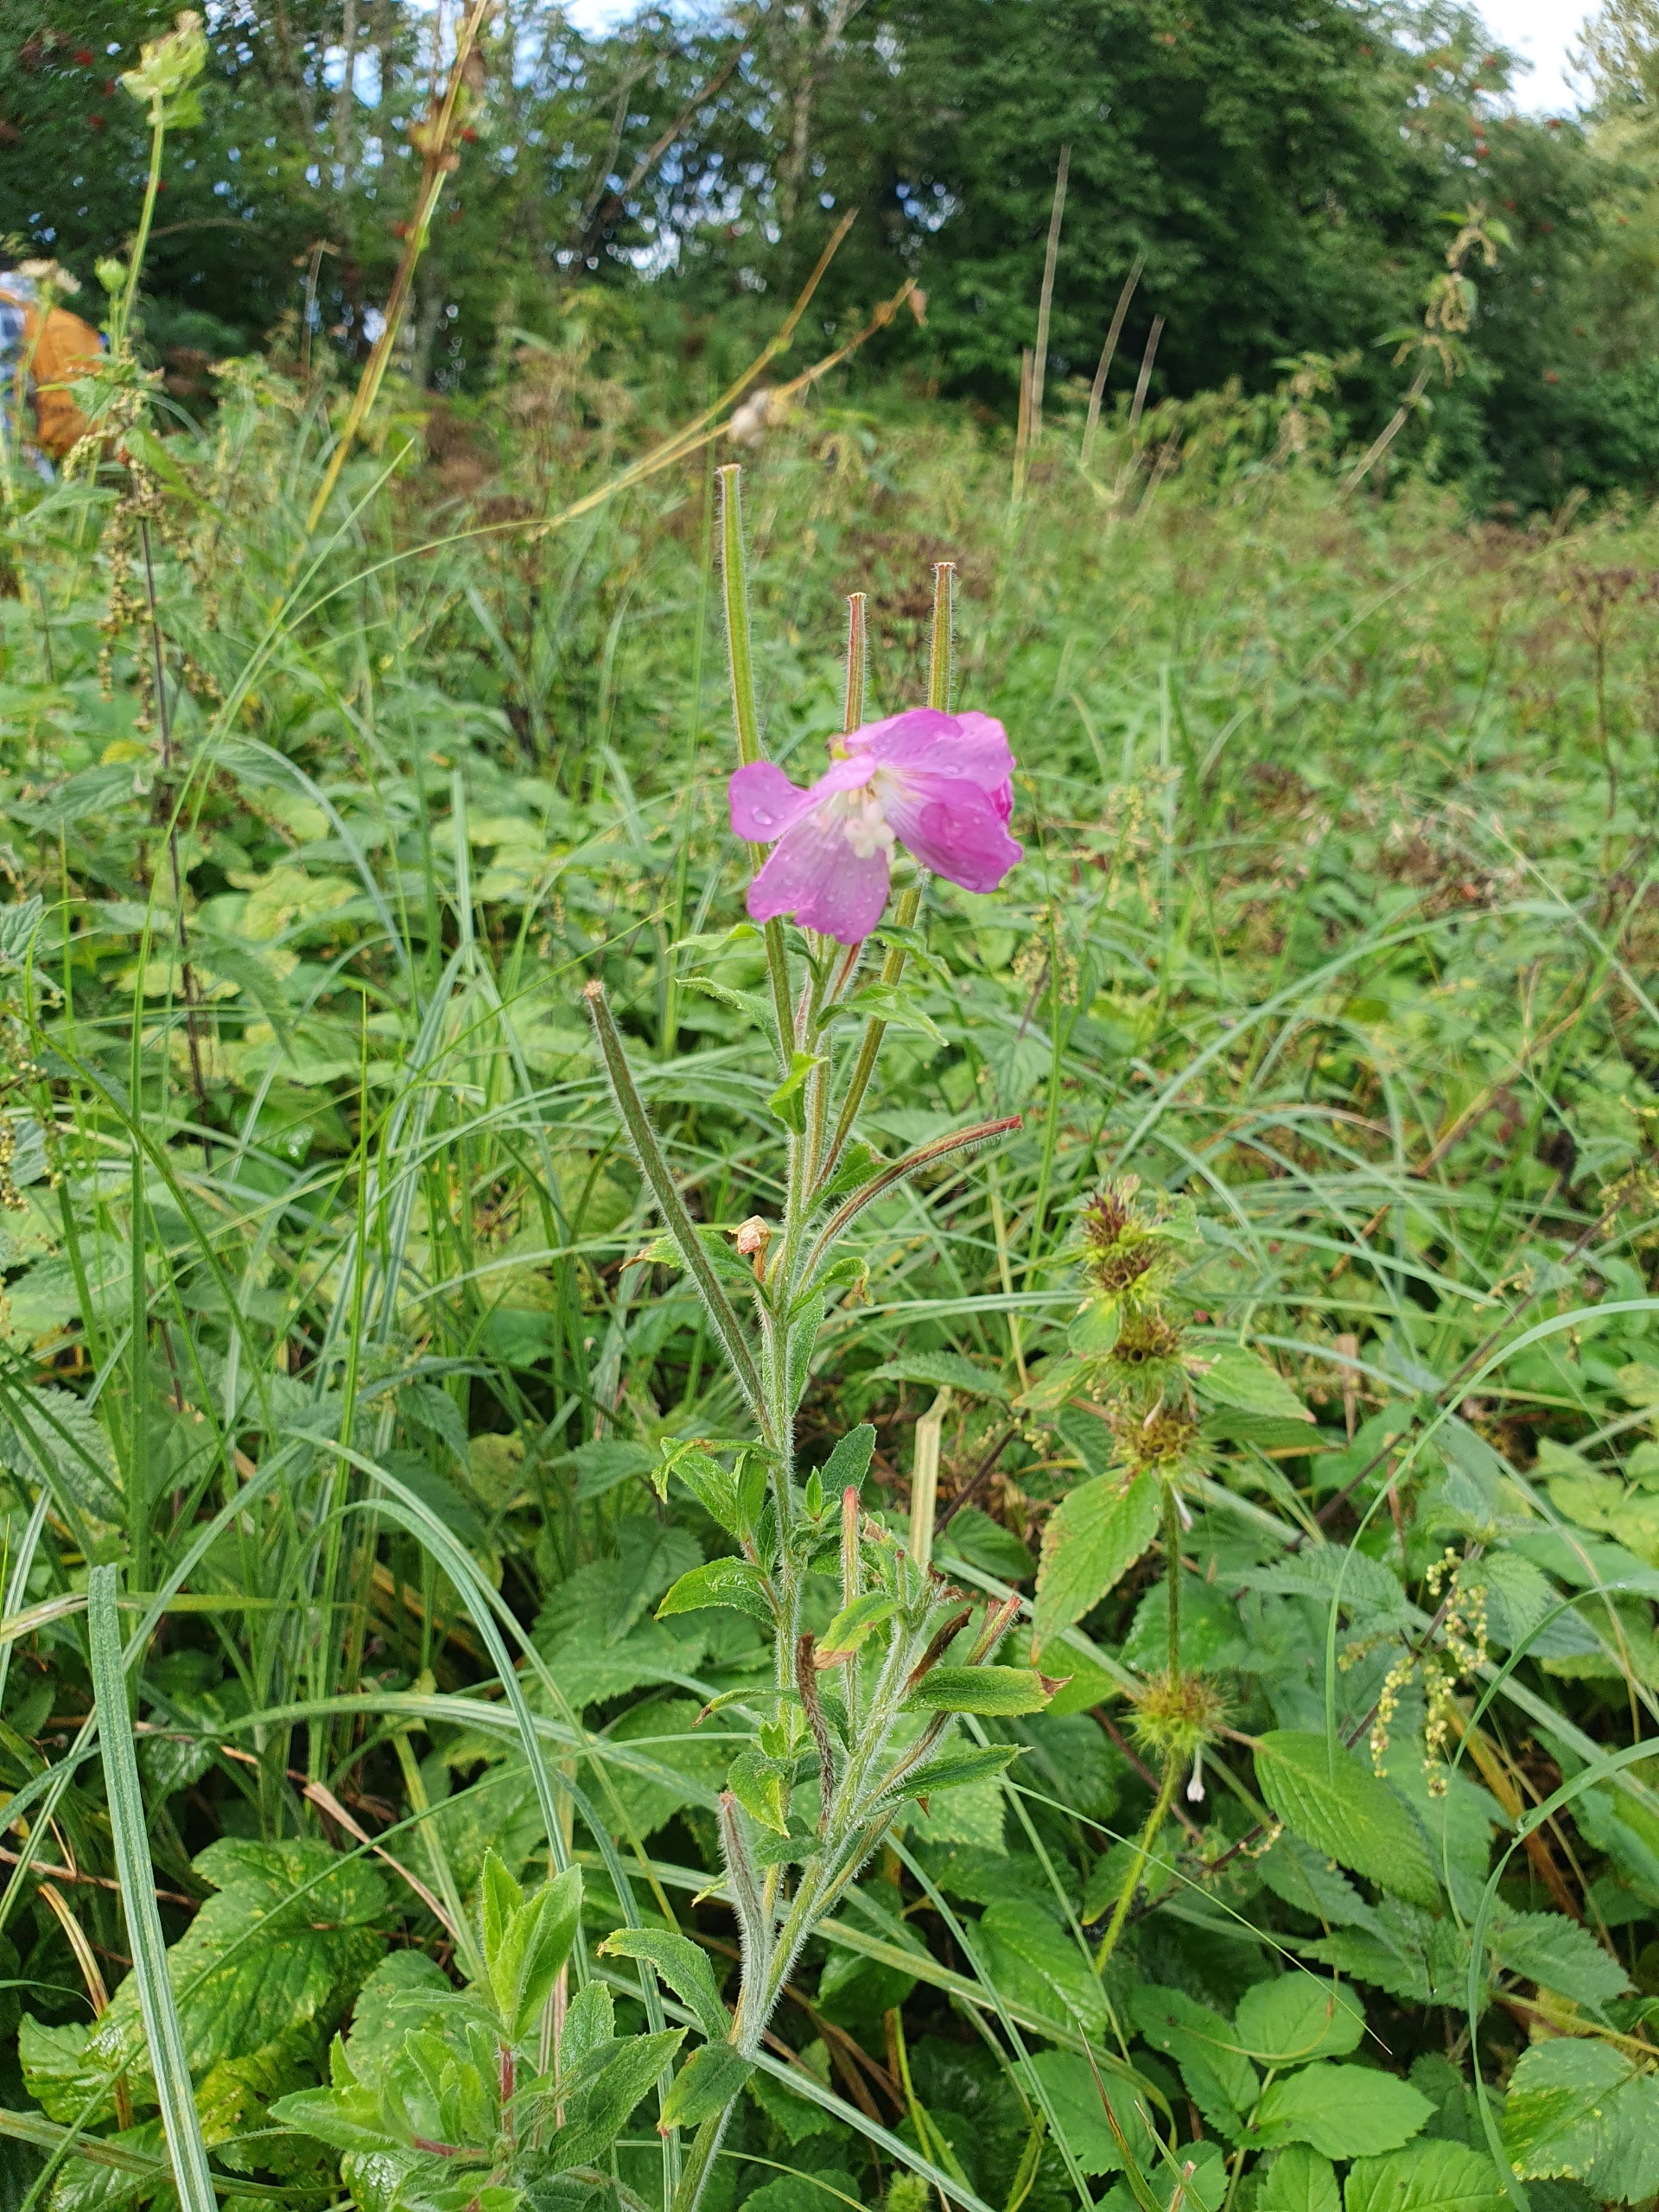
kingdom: Plantae
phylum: Tracheophyta
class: Magnoliopsida
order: Myrtales
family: Onagraceae
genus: Epilobium
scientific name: Epilobium hirsutum
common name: Lådden dueurt
